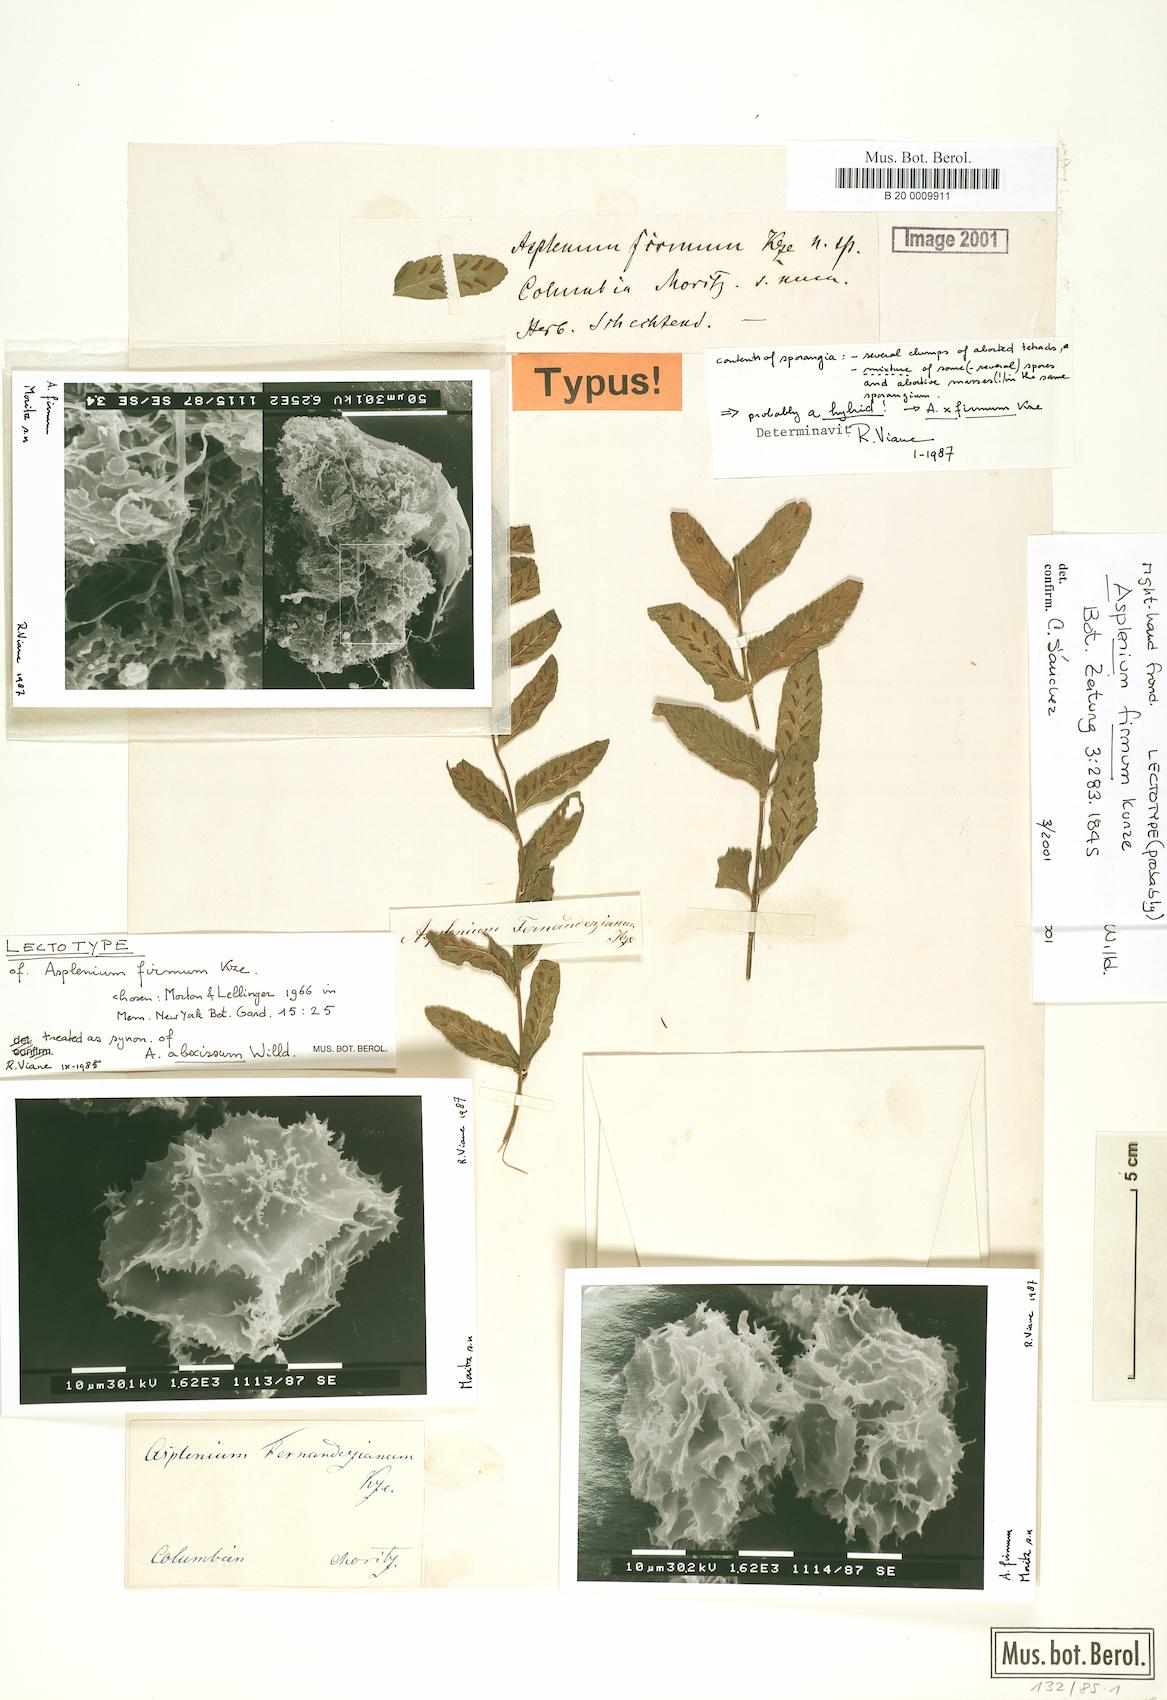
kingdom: Plantae
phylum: Tracheophyta
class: Polypodiopsida
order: Polypodiales
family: Aspleniaceae
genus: Asplenium
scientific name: Asplenium abscissum
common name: Cutleaf spleenwort
